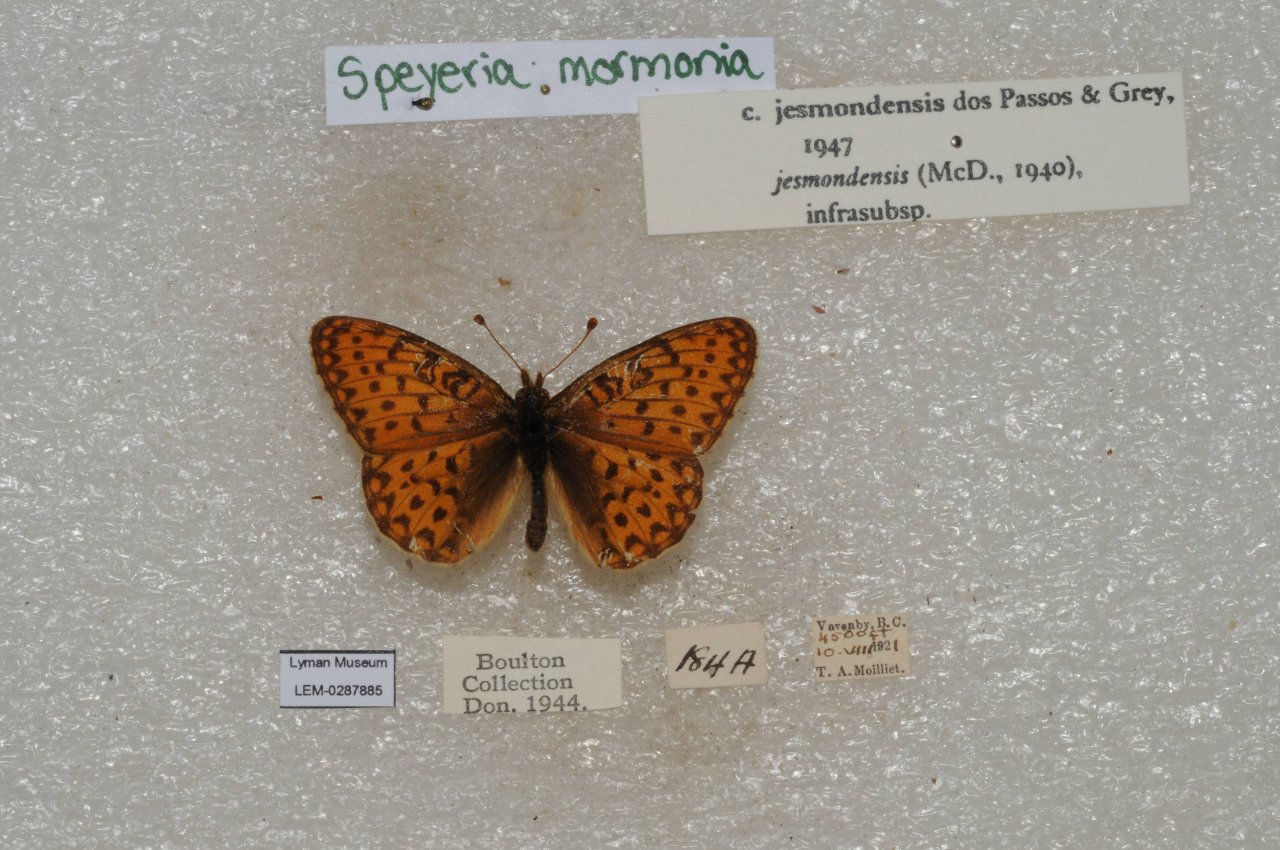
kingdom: Animalia
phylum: Arthropoda
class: Insecta
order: Lepidoptera
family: Nymphalidae
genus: Speyeria
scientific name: Speyeria mormonia
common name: Mormon Fritillary
